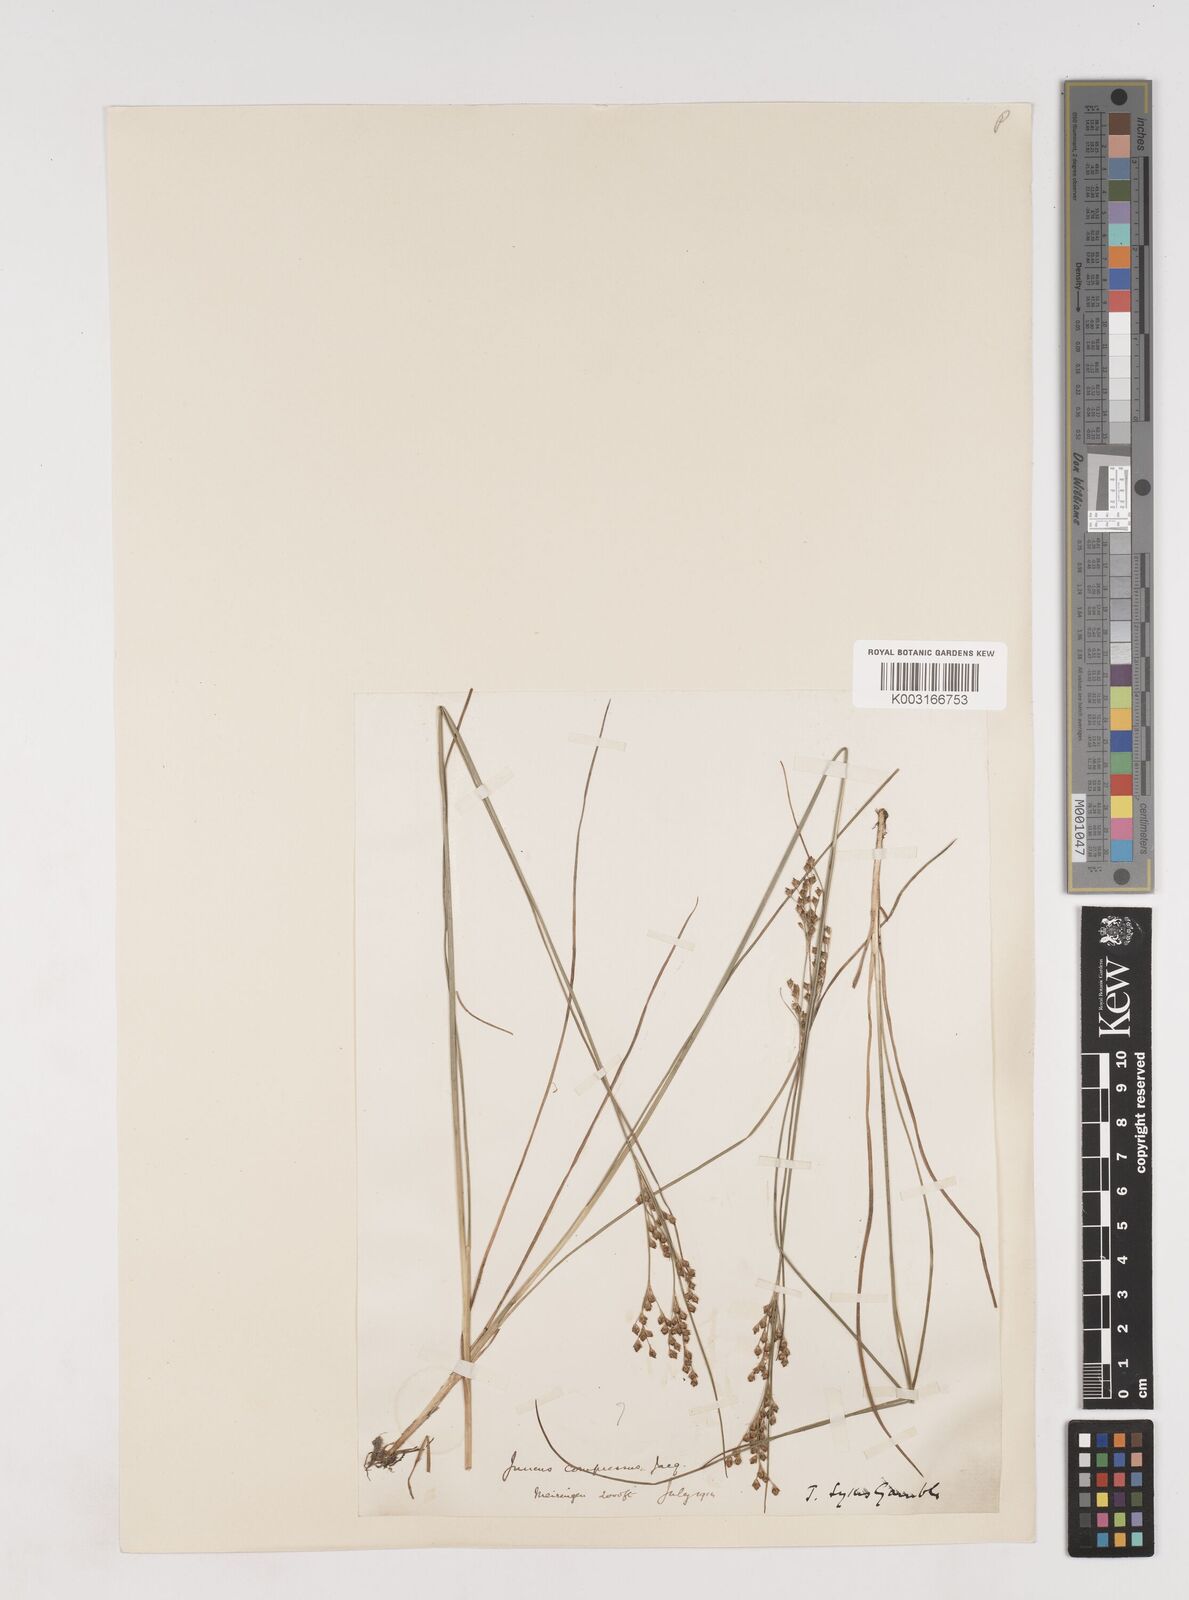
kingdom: Plantae
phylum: Tracheophyta
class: Liliopsida
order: Poales
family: Juncaceae
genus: Juncus
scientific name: Juncus
